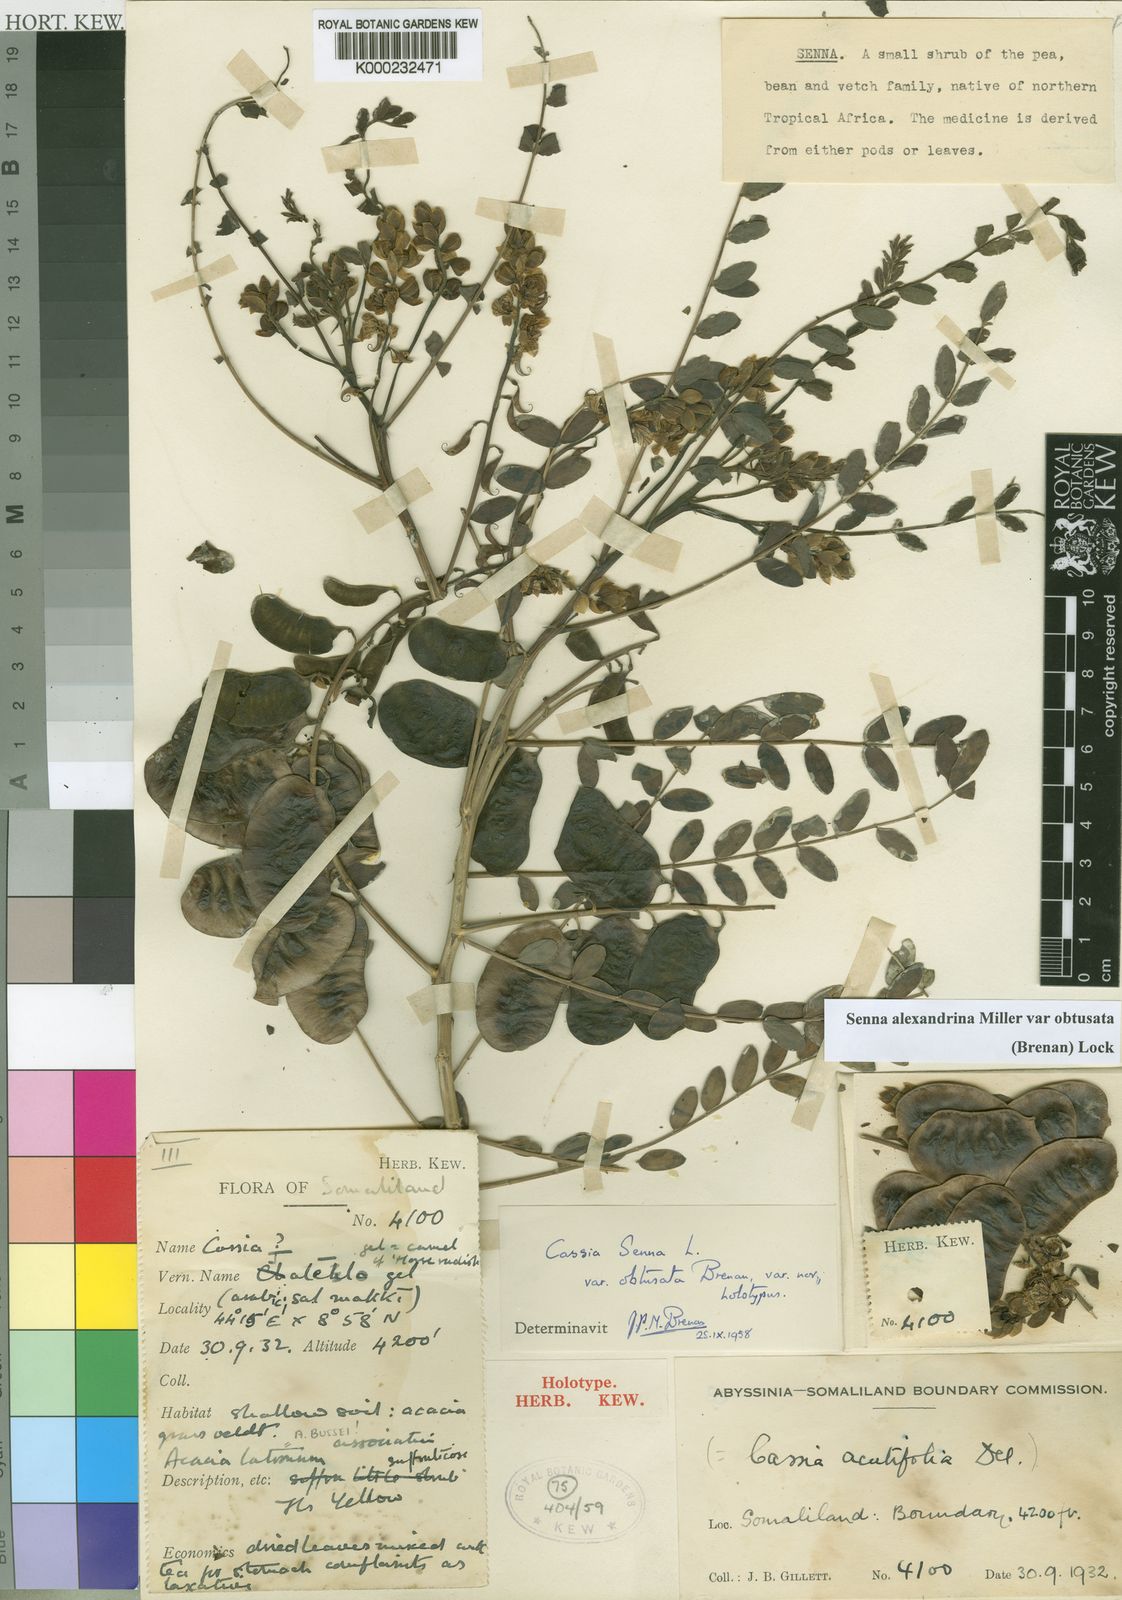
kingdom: Plantae
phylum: Tracheophyta
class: Magnoliopsida
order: Fabales
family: Fabaceae
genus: Senna
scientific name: Senna alexandrina
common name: True senna
